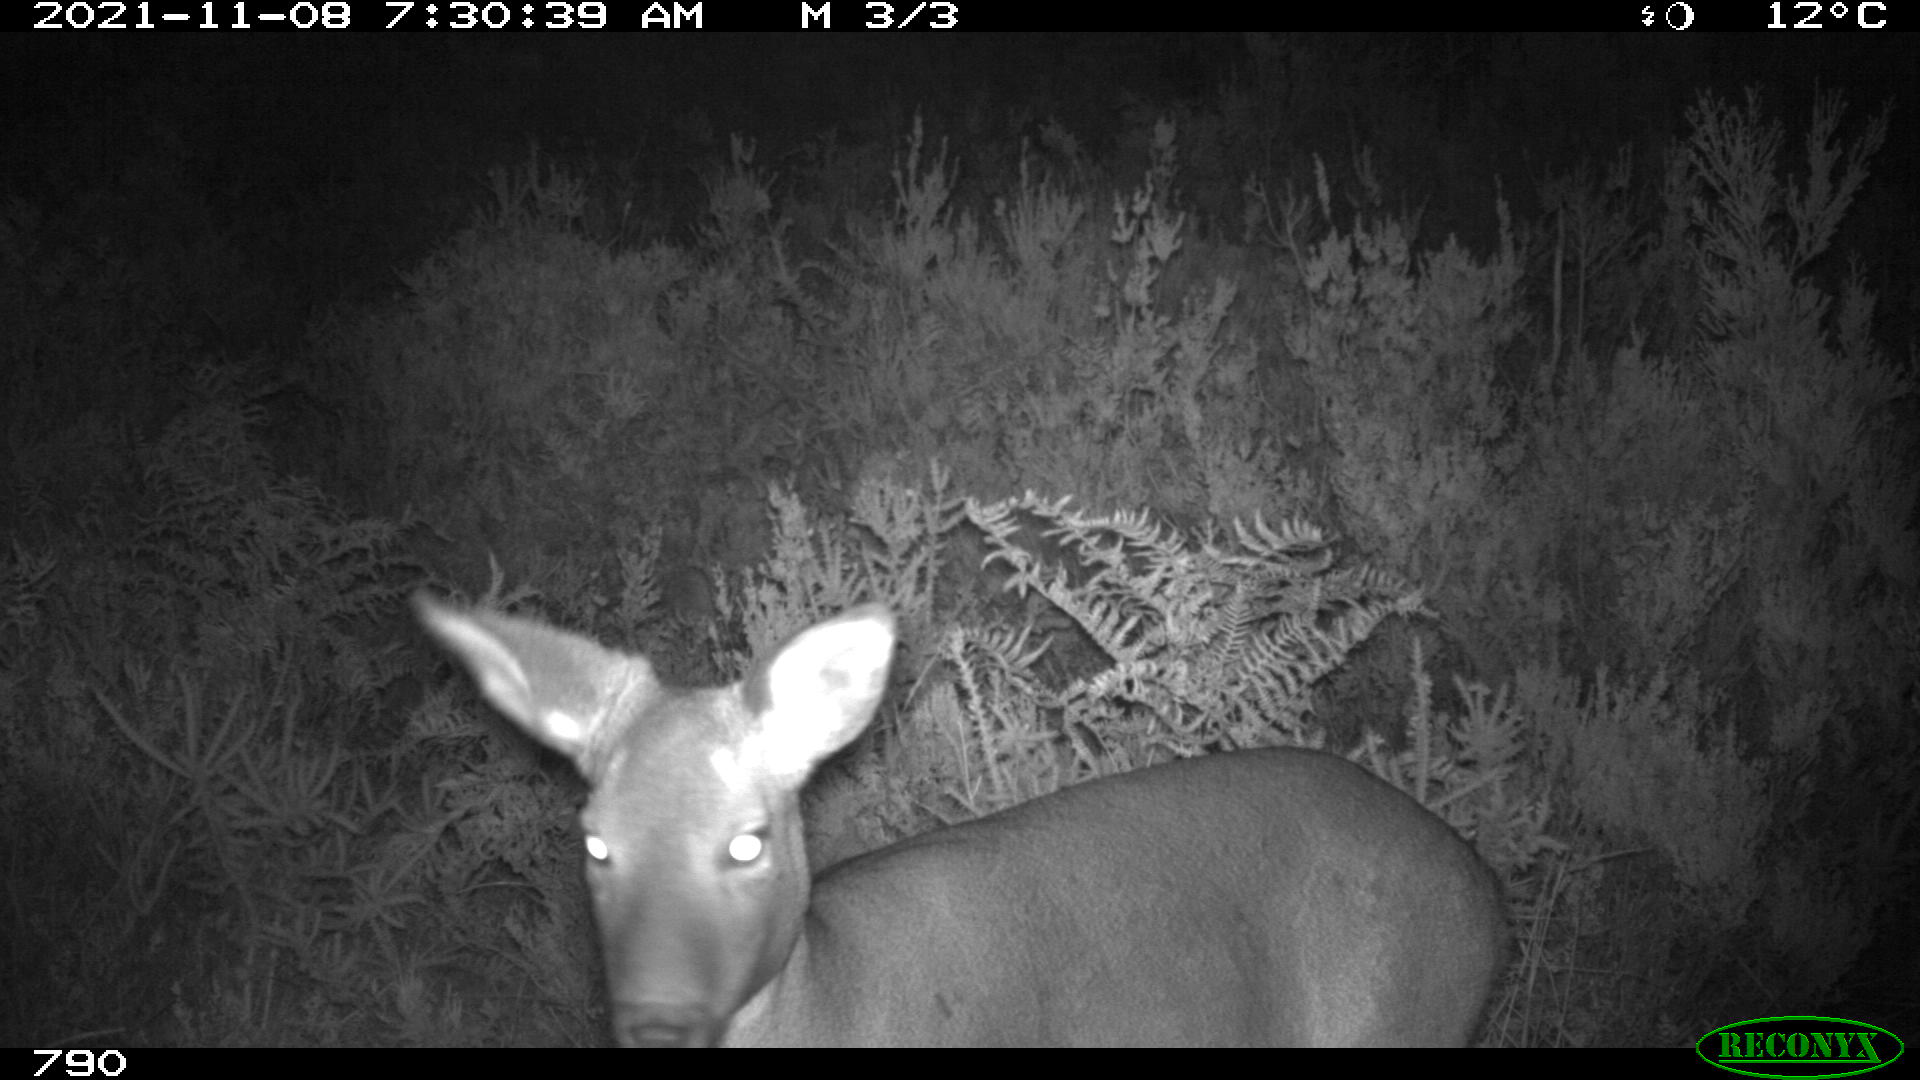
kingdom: Animalia
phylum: Chordata
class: Mammalia
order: Artiodactyla
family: Cervidae
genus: Capreolus
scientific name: Capreolus capreolus
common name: Western roe deer
